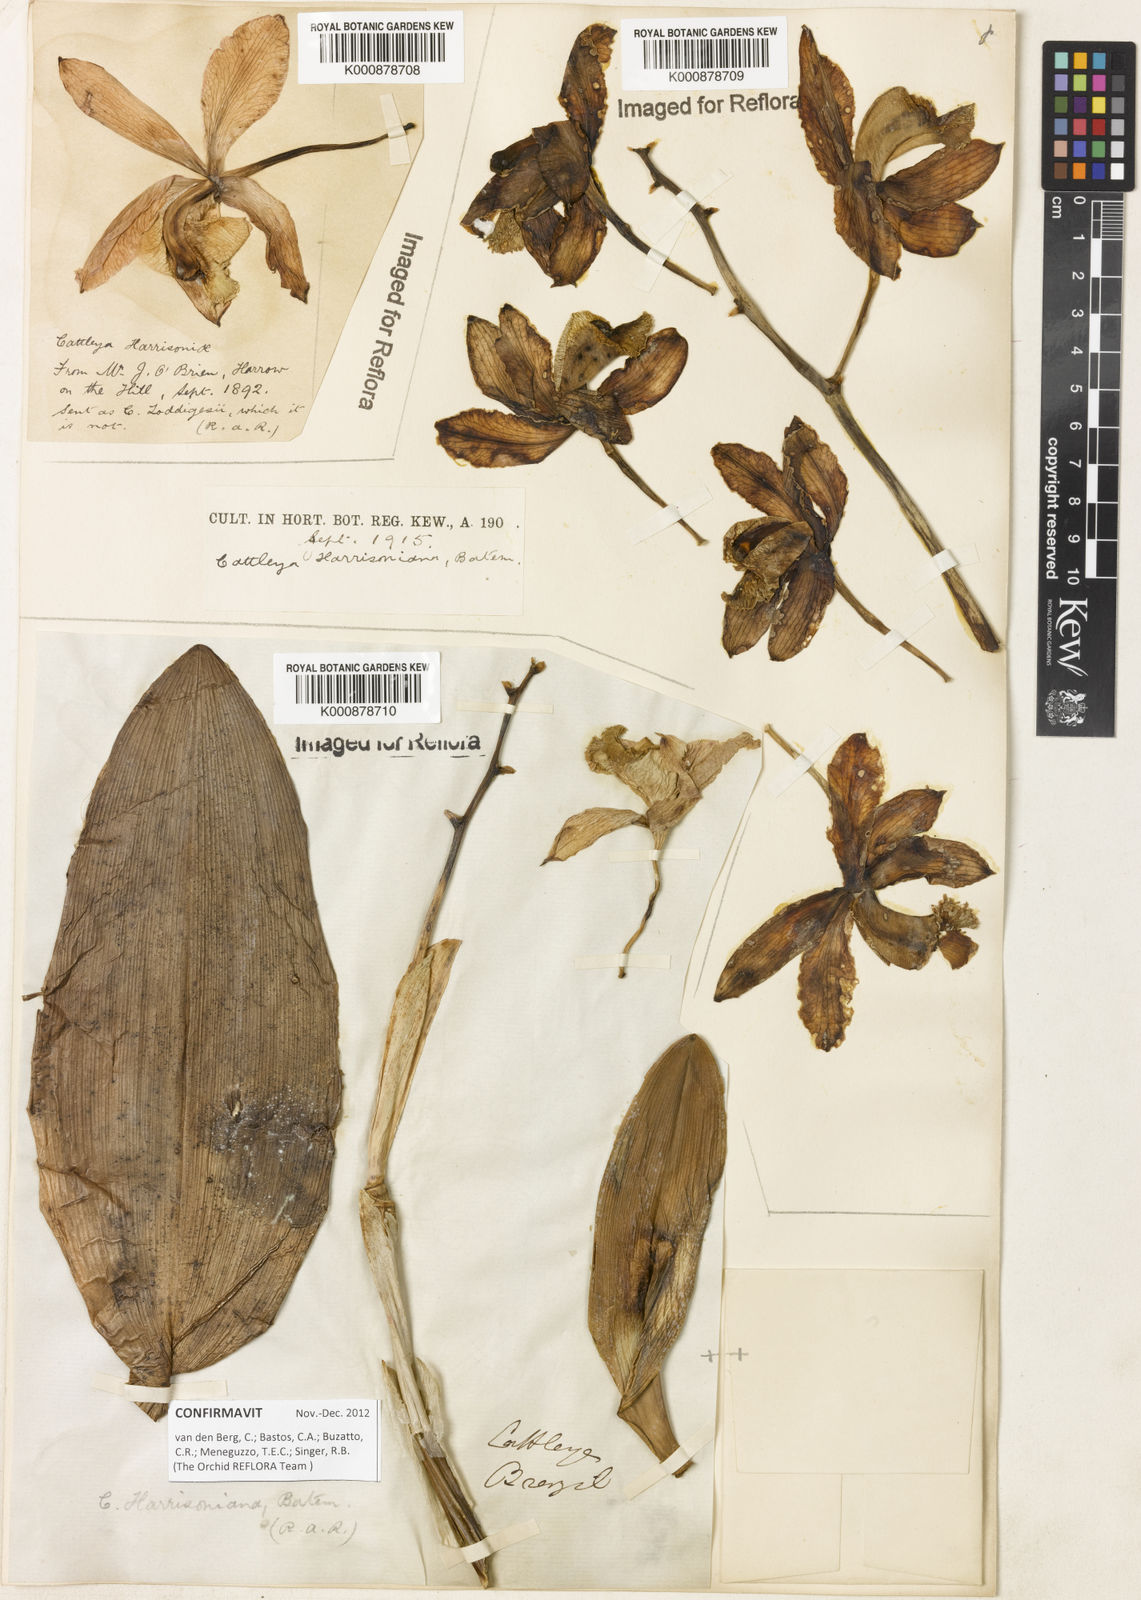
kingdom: Plantae
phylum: Tracheophyta
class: Liliopsida
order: Asparagales
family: Orchidaceae
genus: Cattleya
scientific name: Cattleya harrisoniana
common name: Harrison's cattleya
